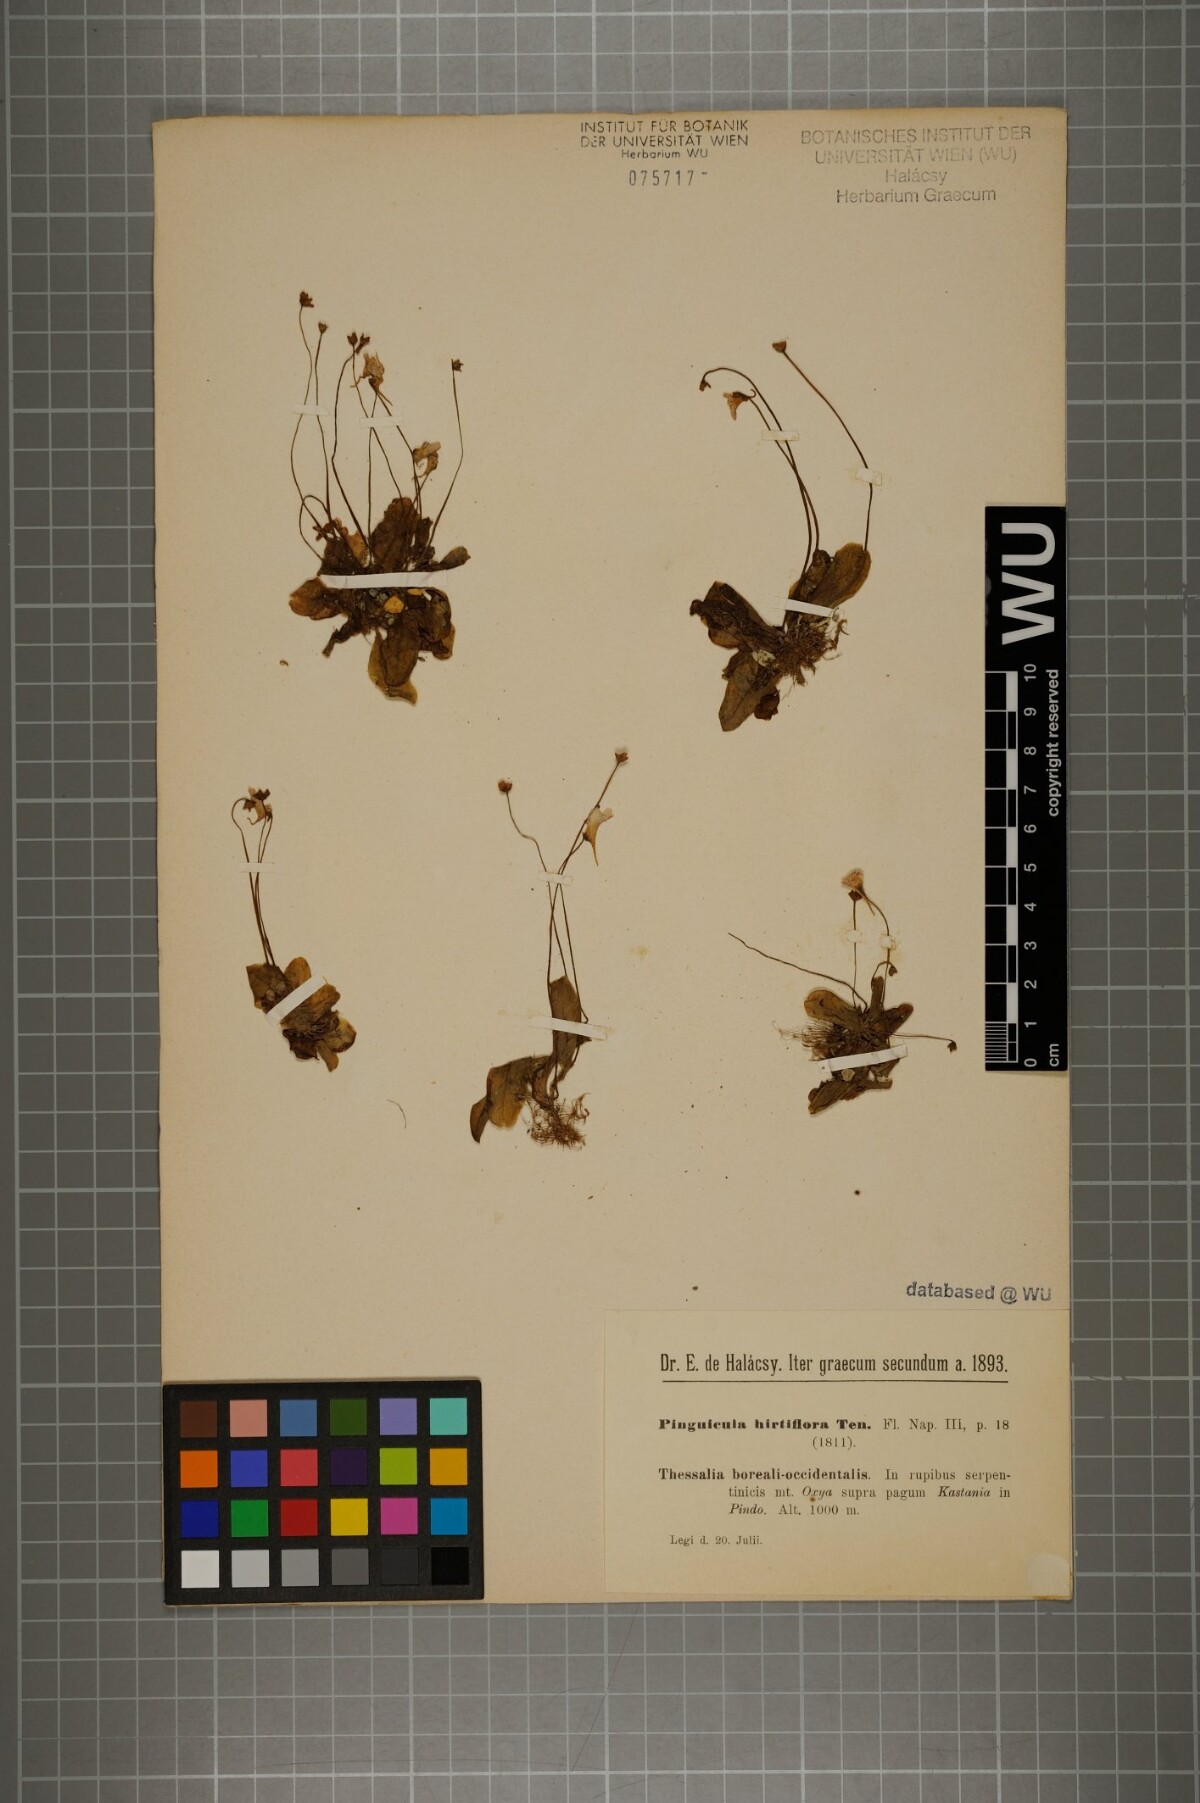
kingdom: Plantae
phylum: Tracheophyta
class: Magnoliopsida
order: Lamiales
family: Lentibulariaceae
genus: Pinguicula
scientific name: Pinguicula crystallina
